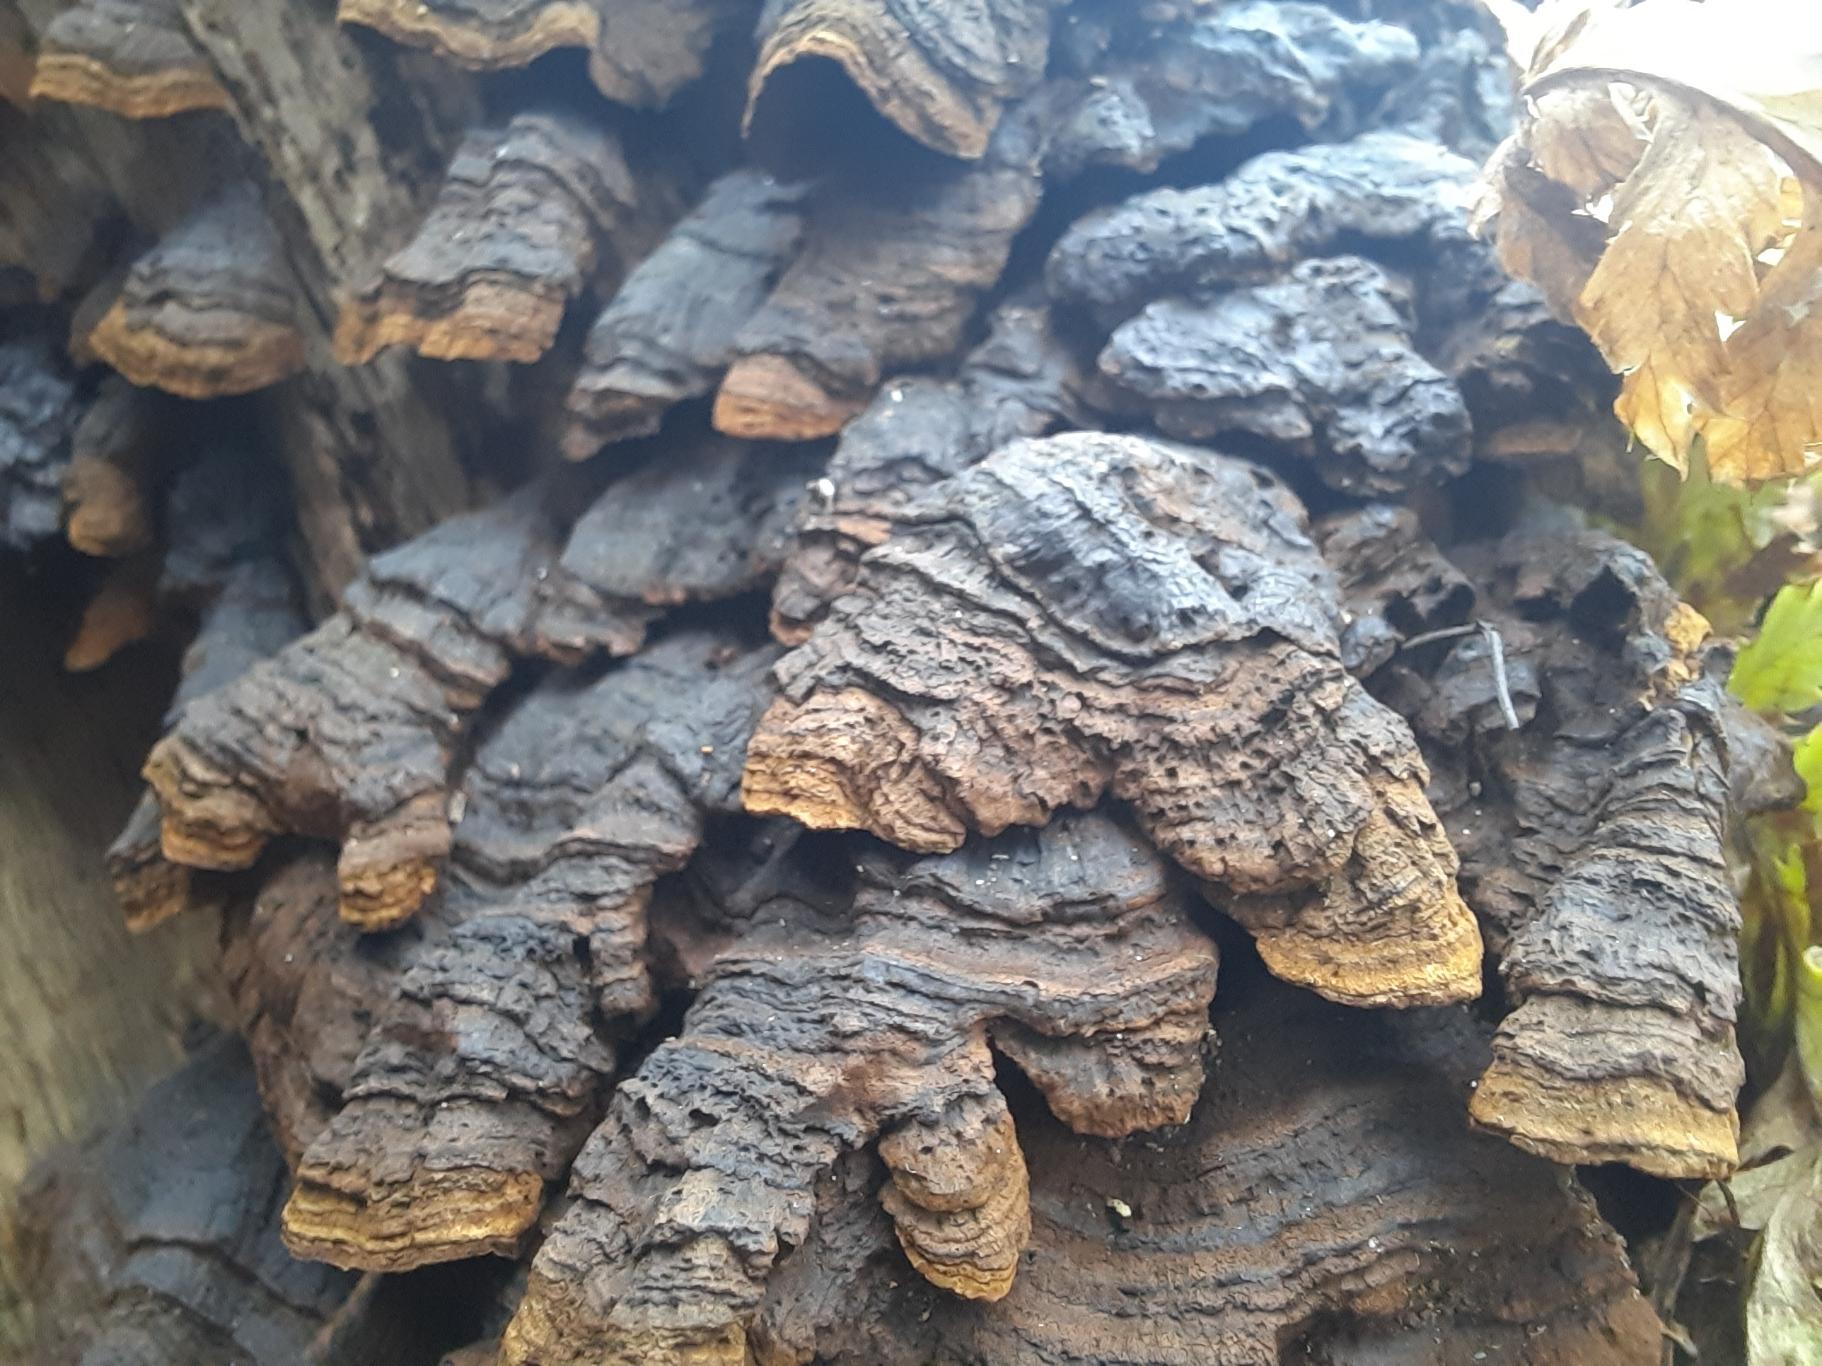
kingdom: Fungi
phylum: Basidiomycota
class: Agaricomycetes
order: Hymenochaetales
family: Hymenochaetaceae
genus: Hymenochaete
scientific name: Hymenochaete rubiginosa
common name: Stiv ruslædersvamp
